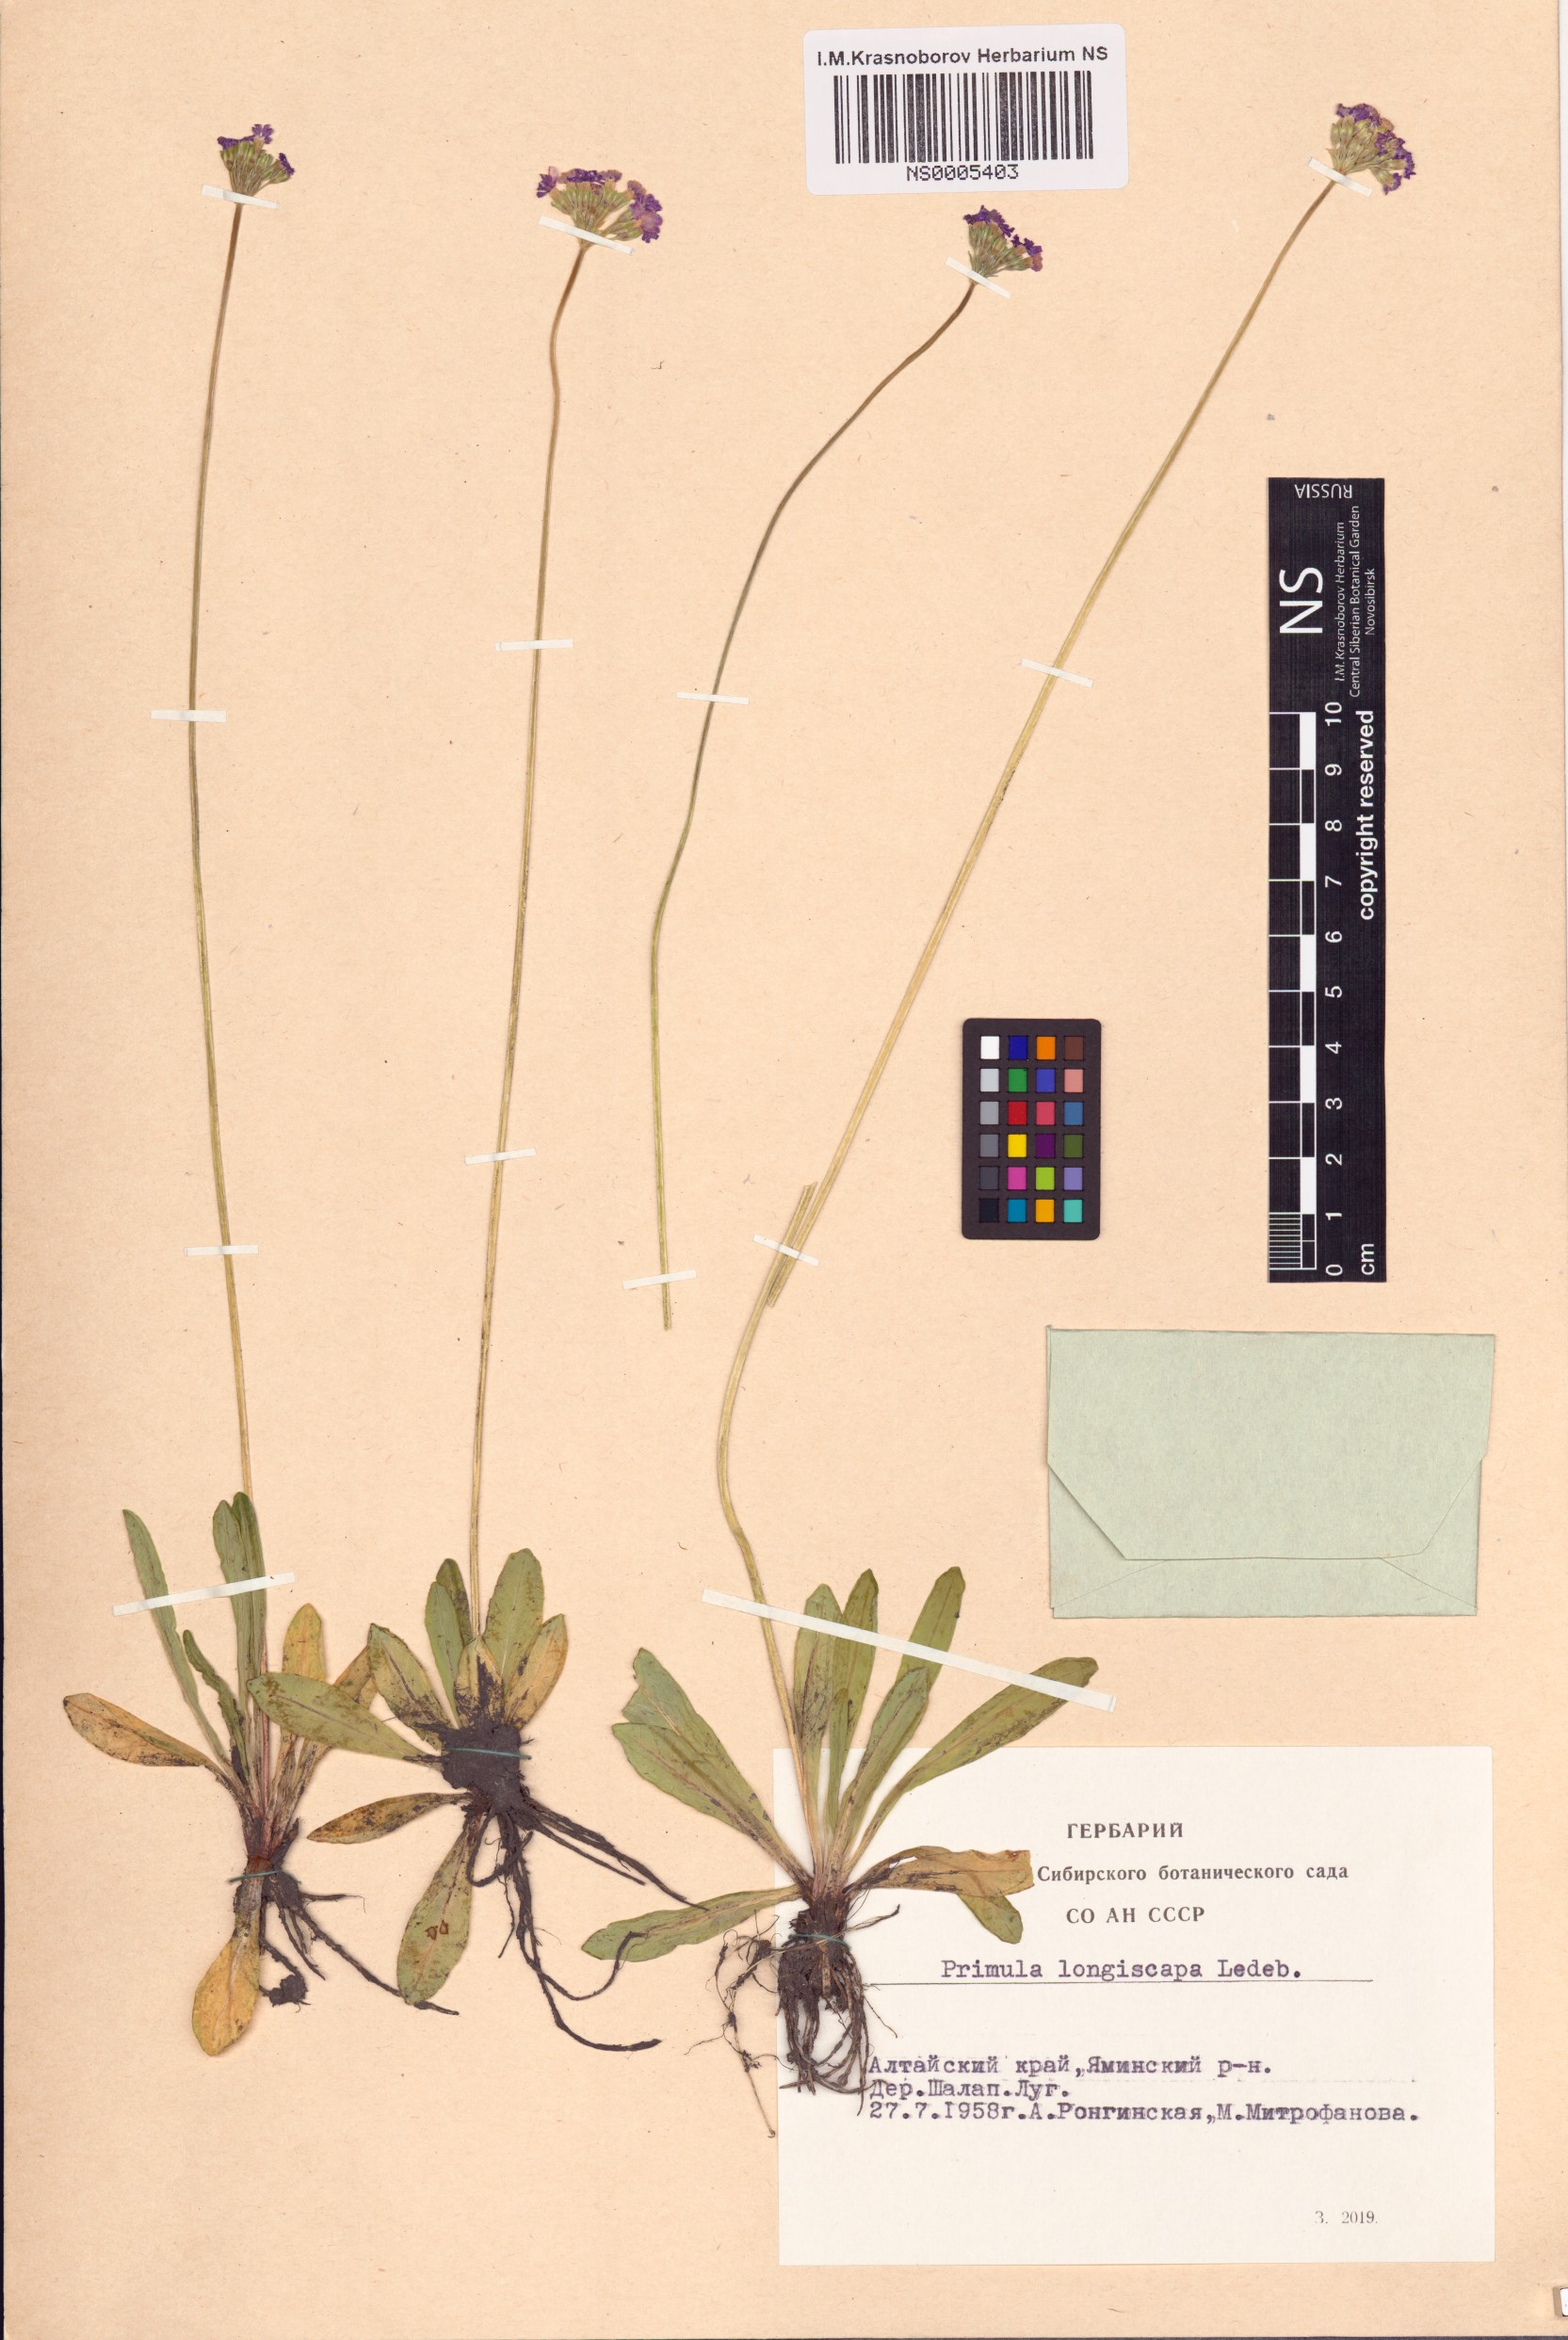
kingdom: Plantae
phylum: Tracheophyta
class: Magnoliopsida
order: Ericales
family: Primulaceae
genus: Primula
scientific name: Primula longiscapa
